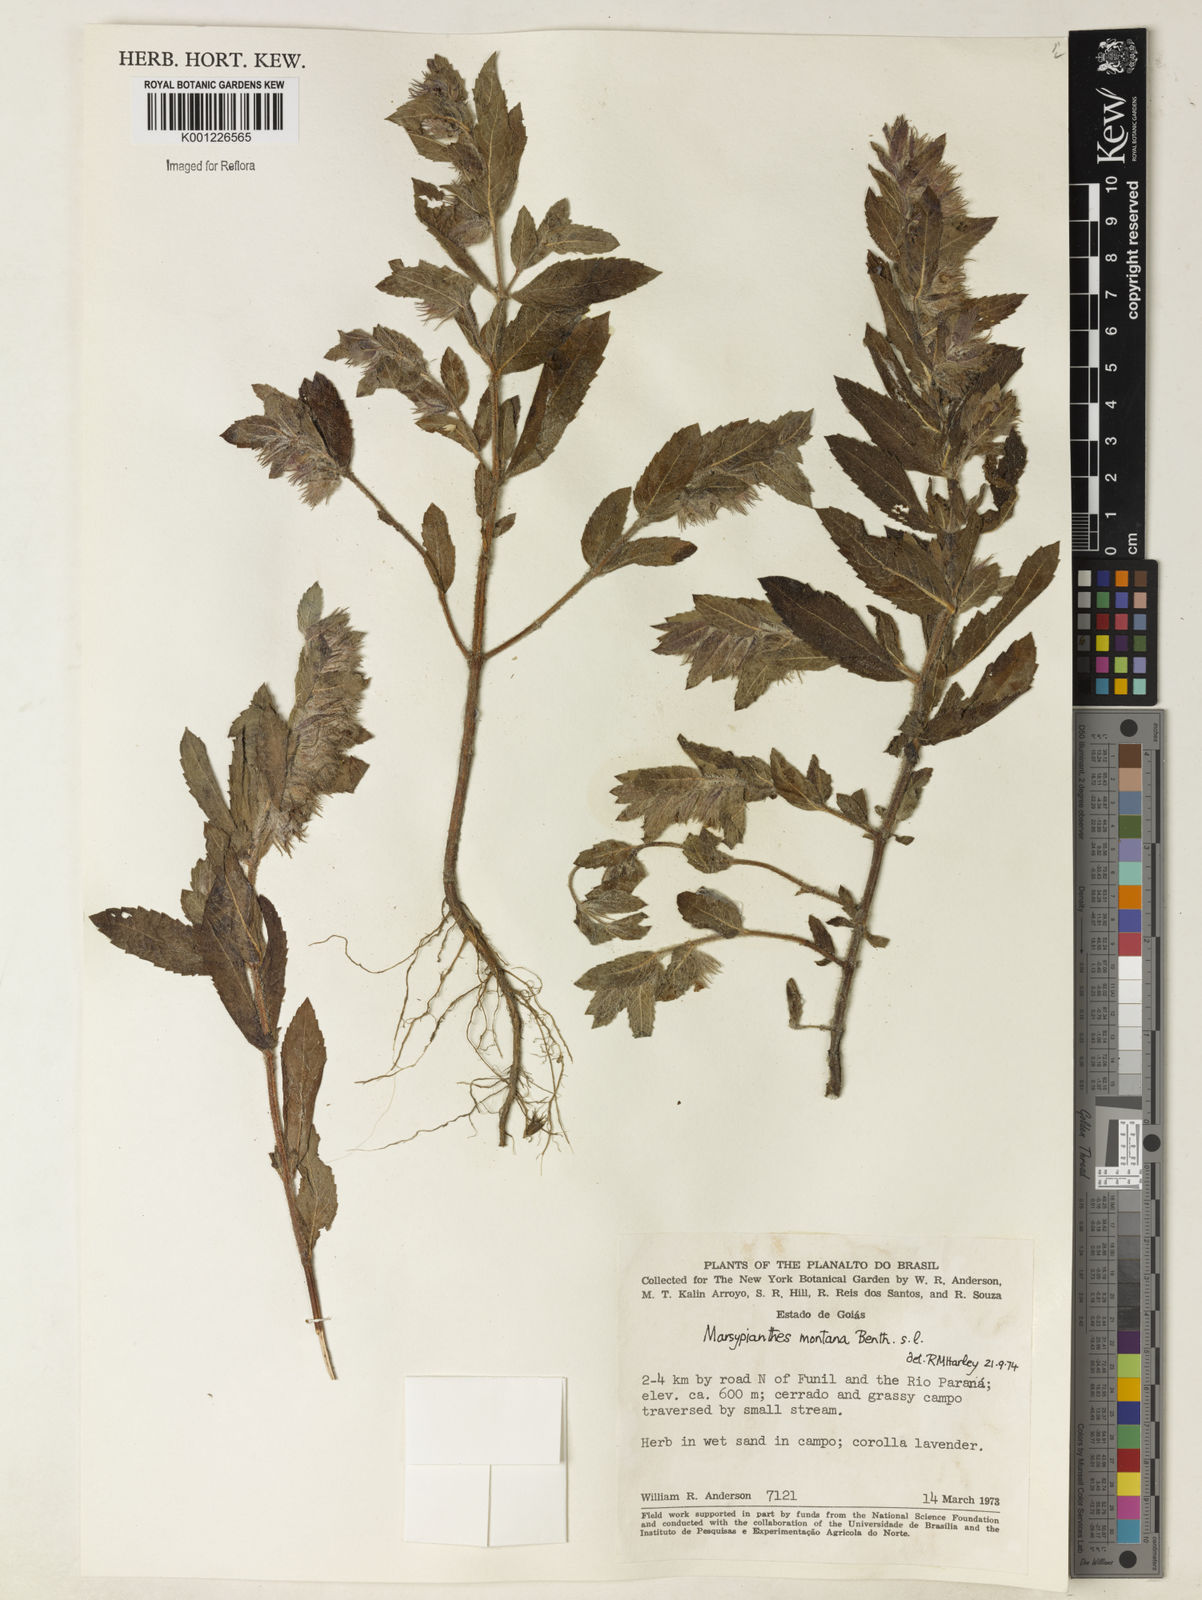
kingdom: Plantae
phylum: Tracheophyta
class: Magnoliopsida
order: Lamiales
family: Lamiaceae
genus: Marsypianthes
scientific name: Marsypianthes burchellii
